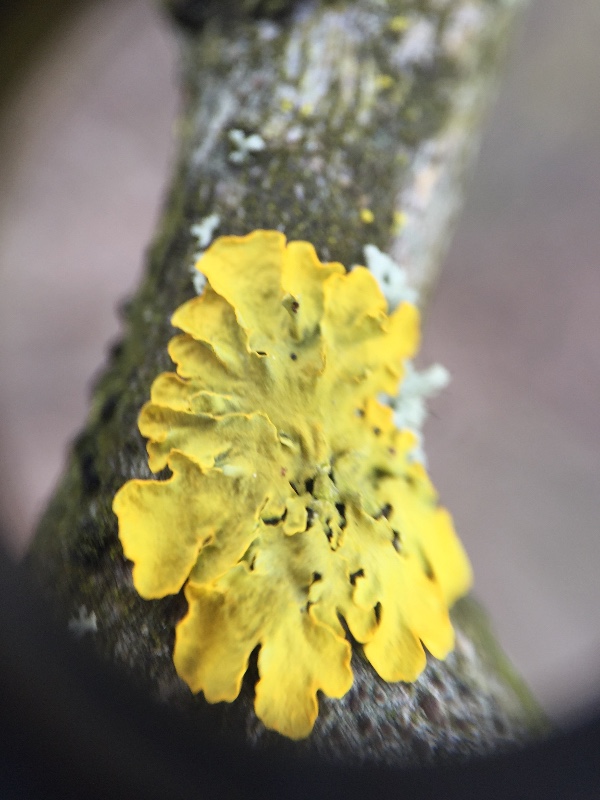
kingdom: Fungi
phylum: Ascomycota
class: Lecanoromycetes
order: Teloschistales
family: Teloschistaceae
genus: Xanthoria
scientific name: Xanthoria parietina
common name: almindelig væggelav
